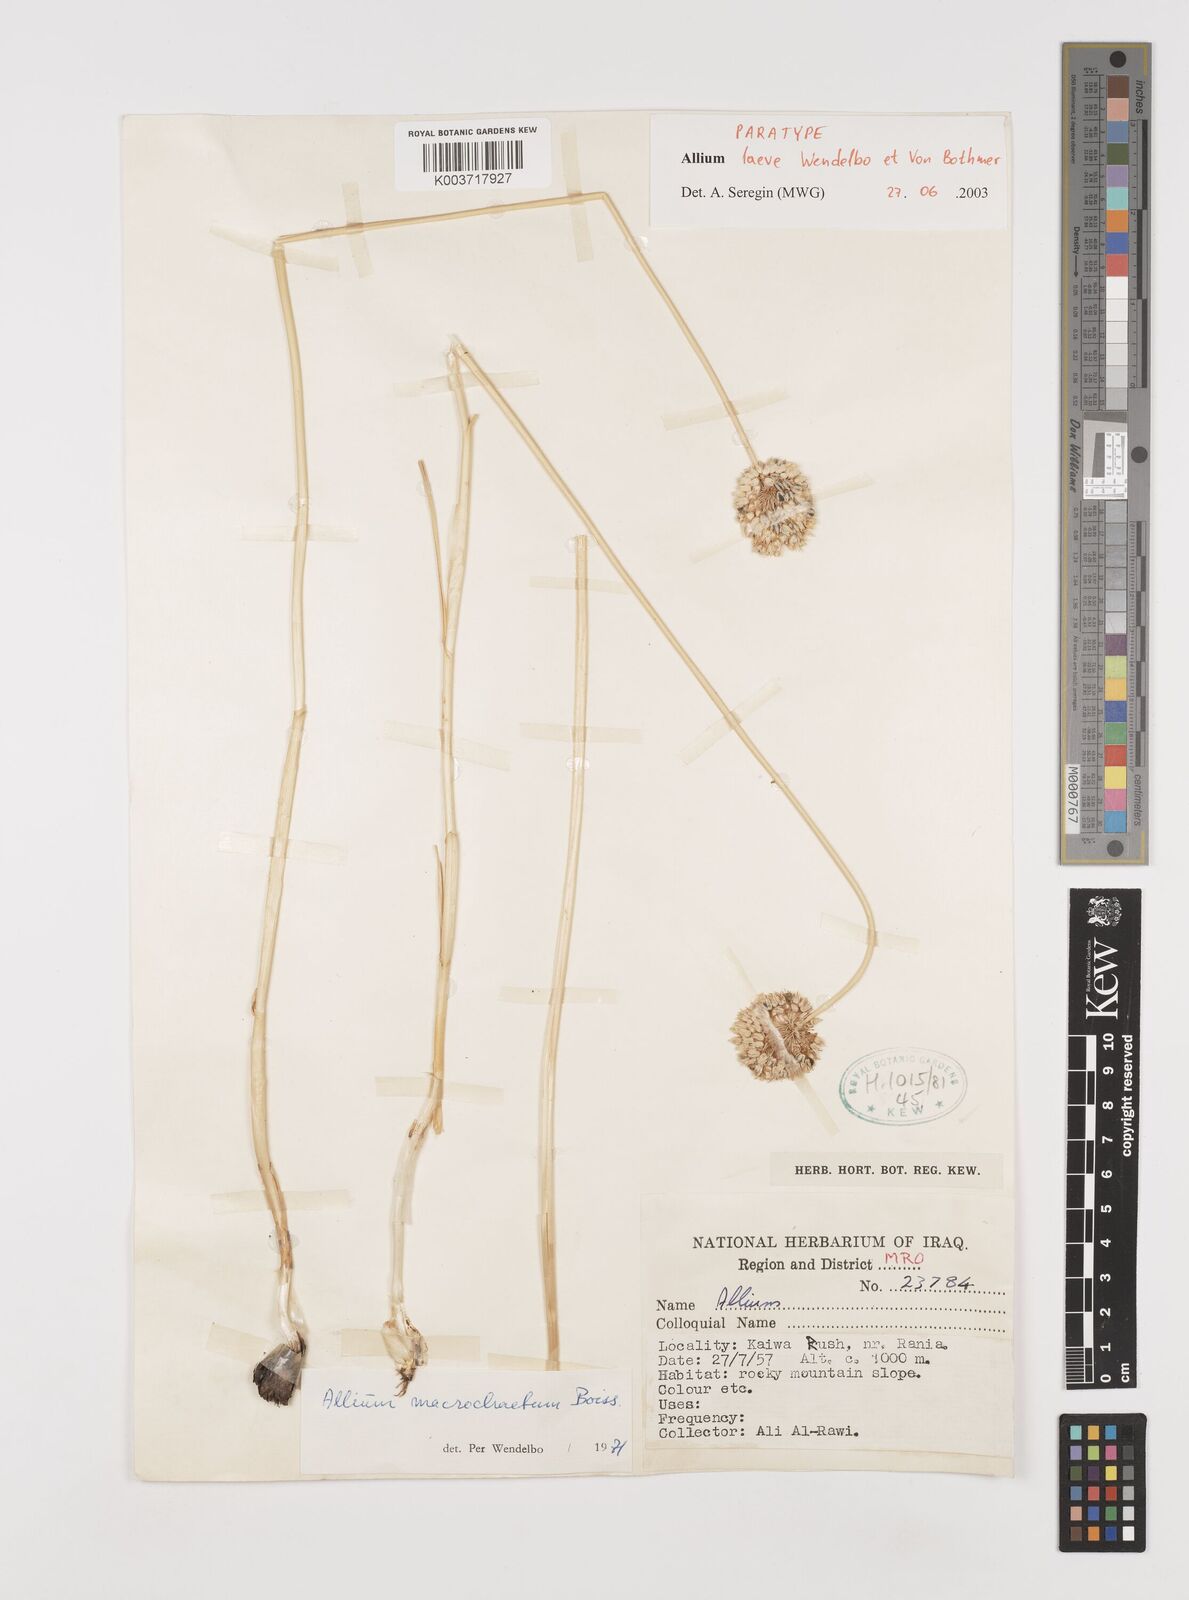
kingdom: Plantae
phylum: Tracheophyta
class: Liliopsida
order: Asparagales
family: Amaryllidaceae
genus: Allium
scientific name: Allium macrochaetum
